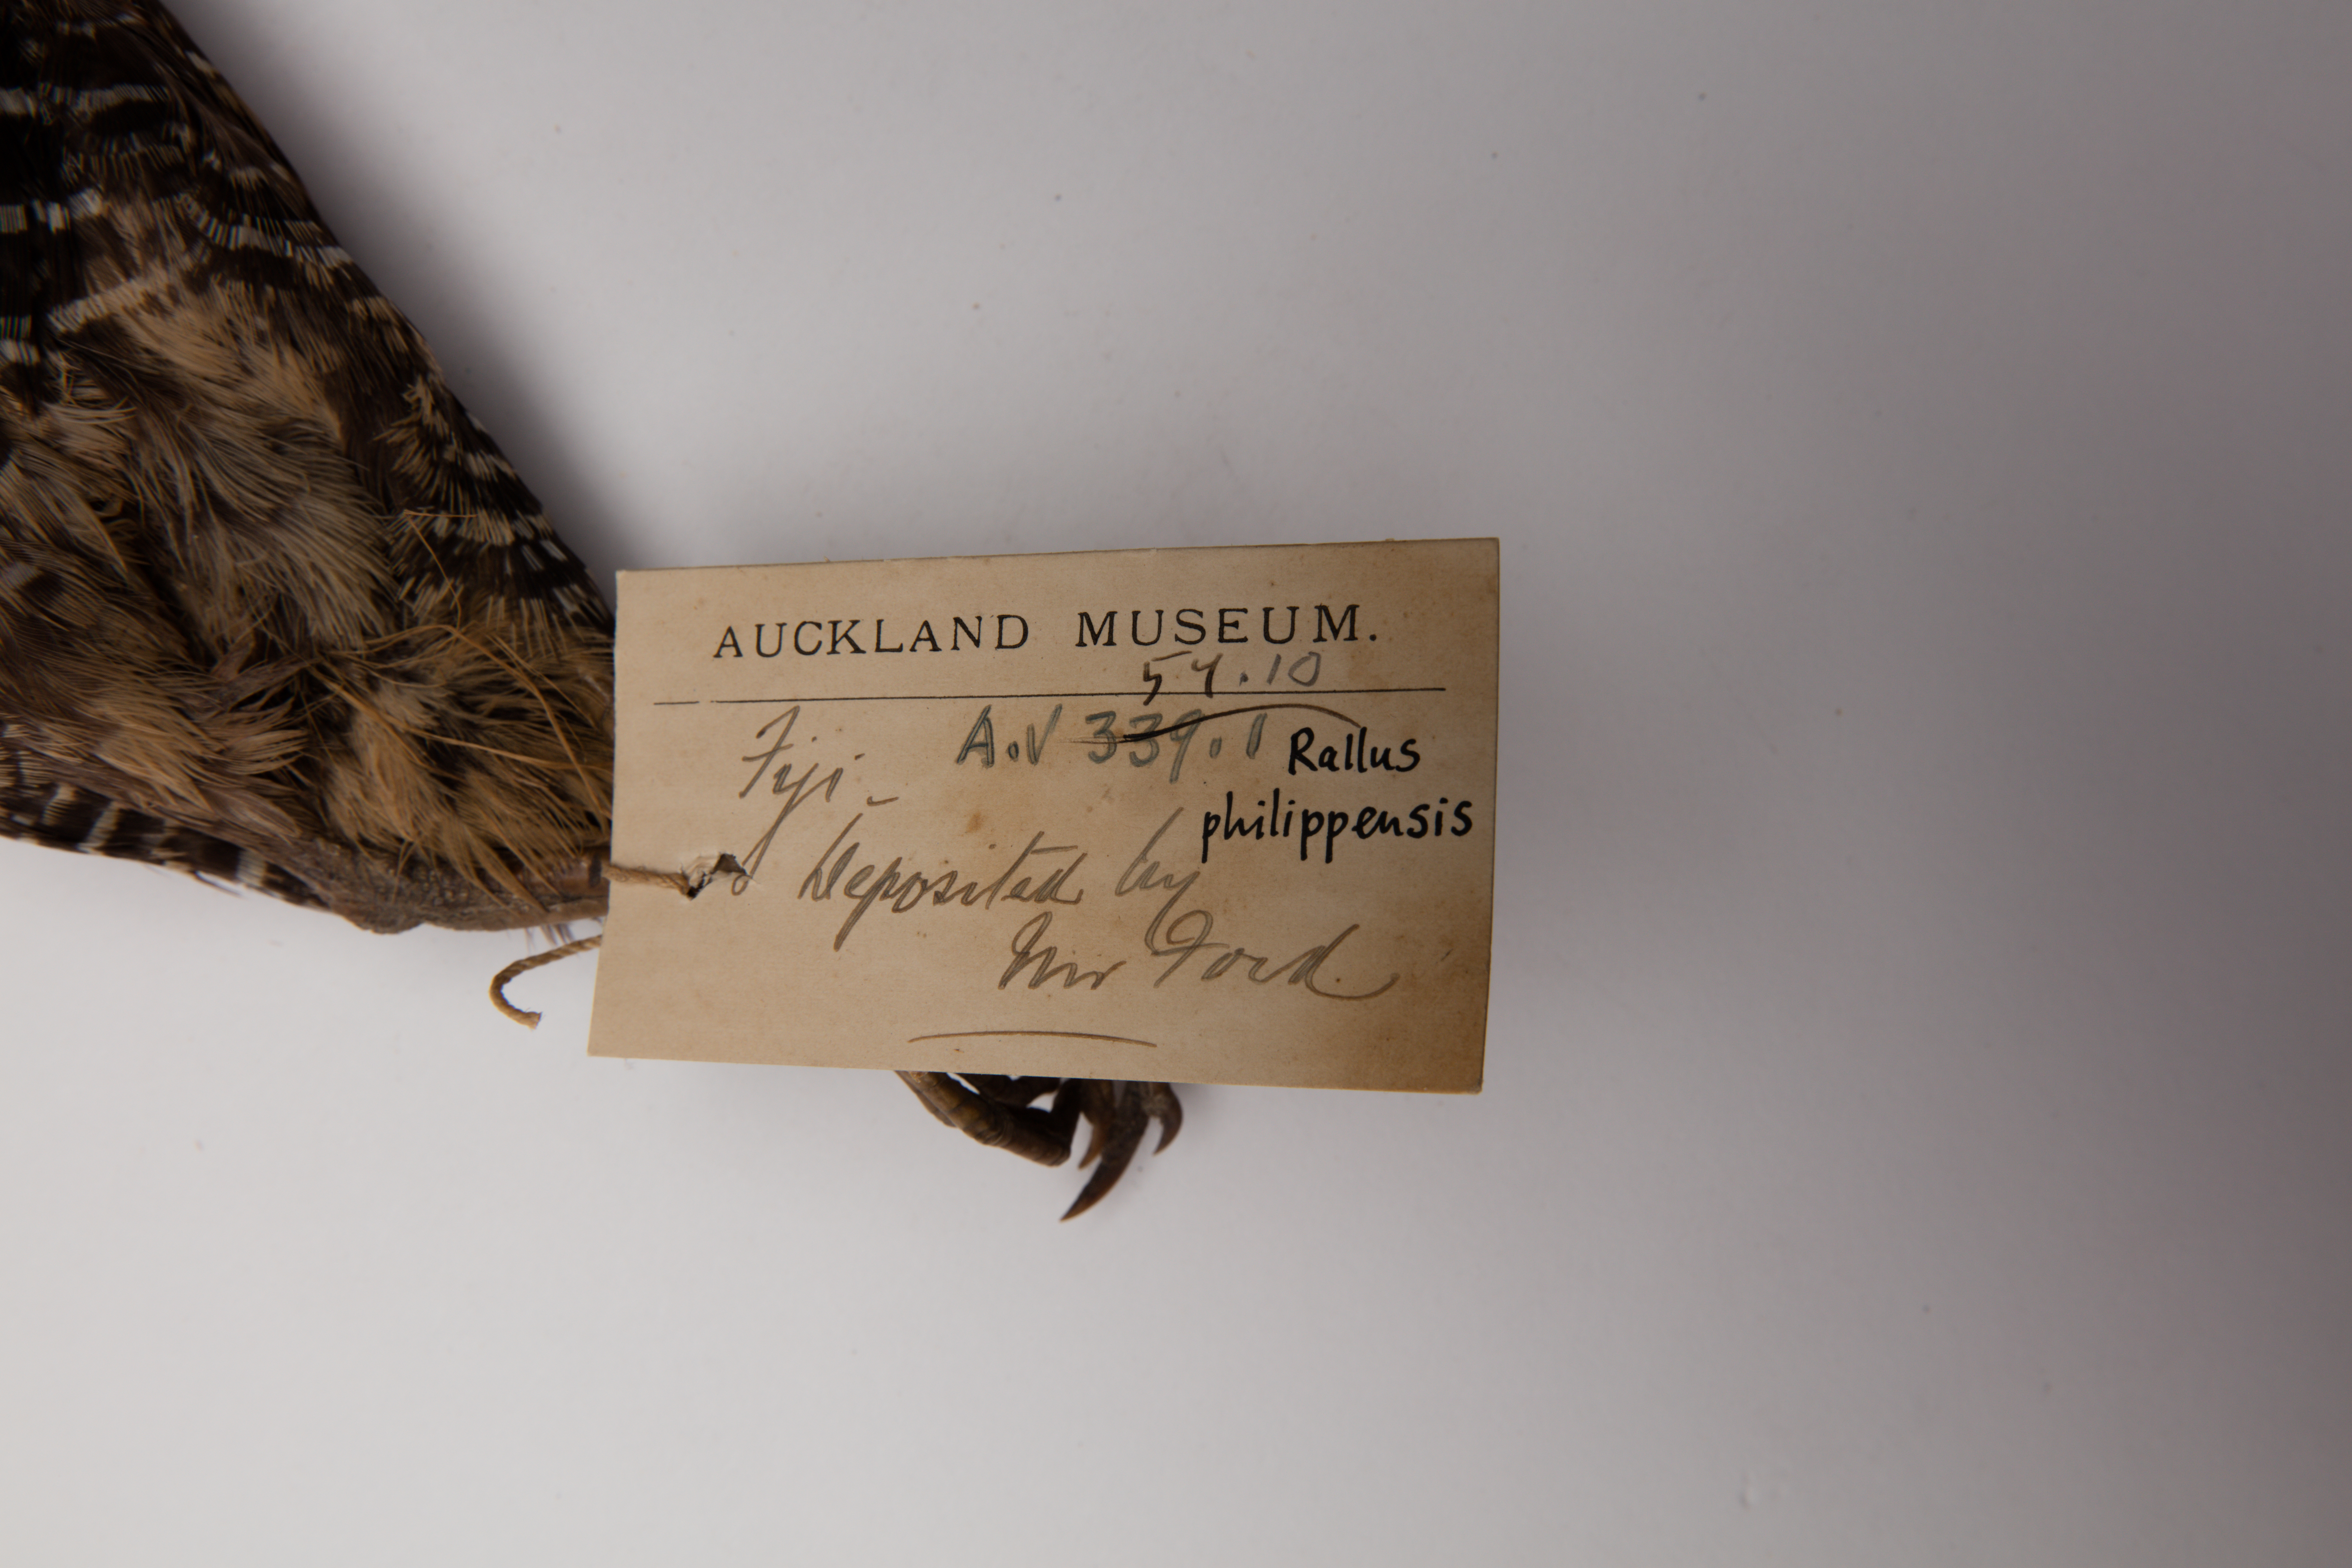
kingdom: Animalia
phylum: Chordata
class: Aves
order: Gruiformes
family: Rallidae
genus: Gallirallus
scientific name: Gallirallus philippensis
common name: Buff-banded rail
